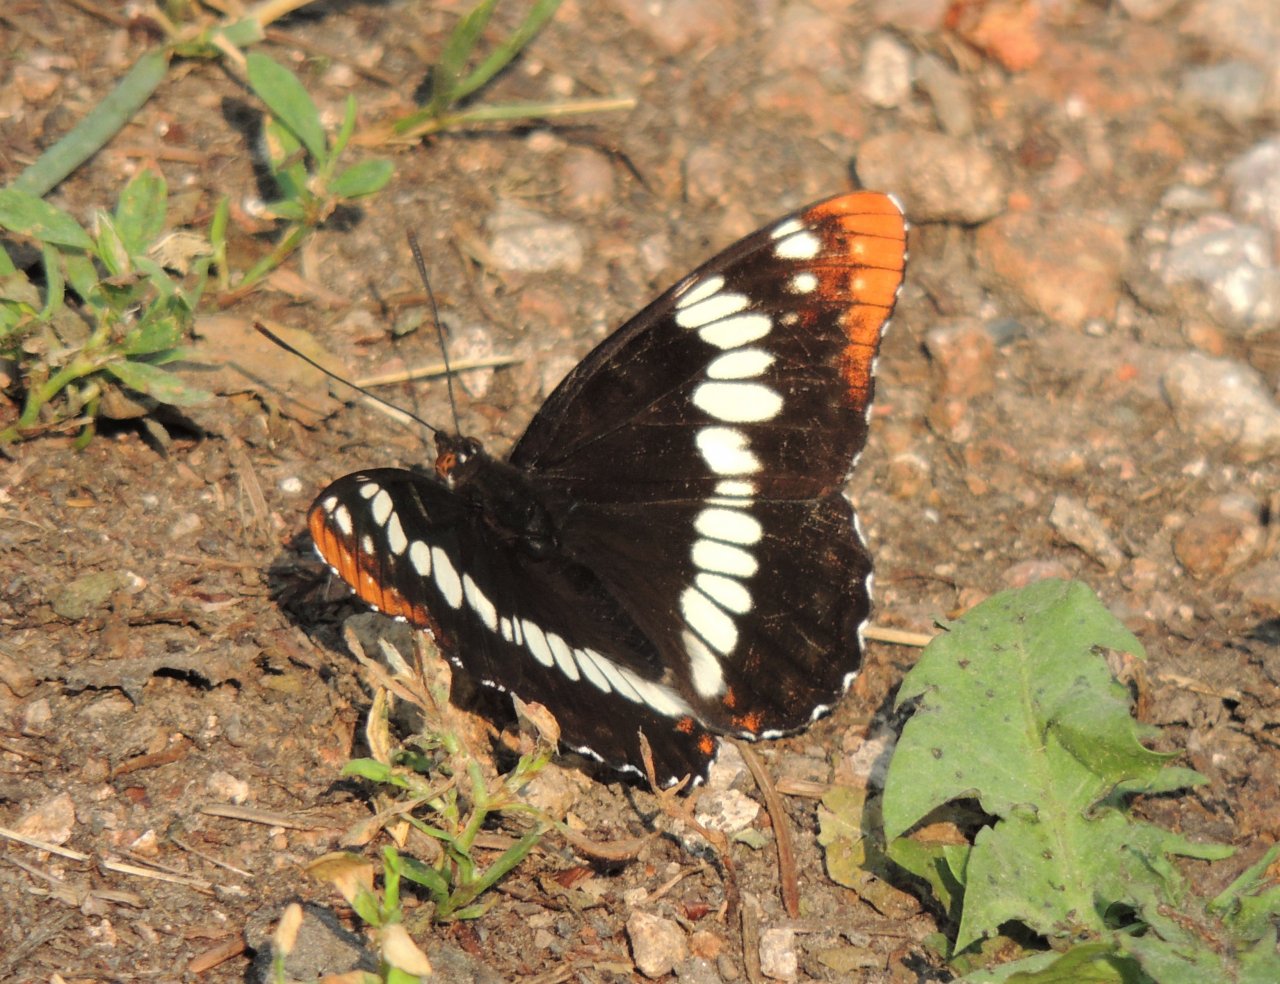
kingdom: Animalia
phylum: Arthropoda
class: Insecta
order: Lepidoptera
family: Nymphalidae
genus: Limenitis
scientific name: Limenitis lorquini
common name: Lorquin's Admiral
